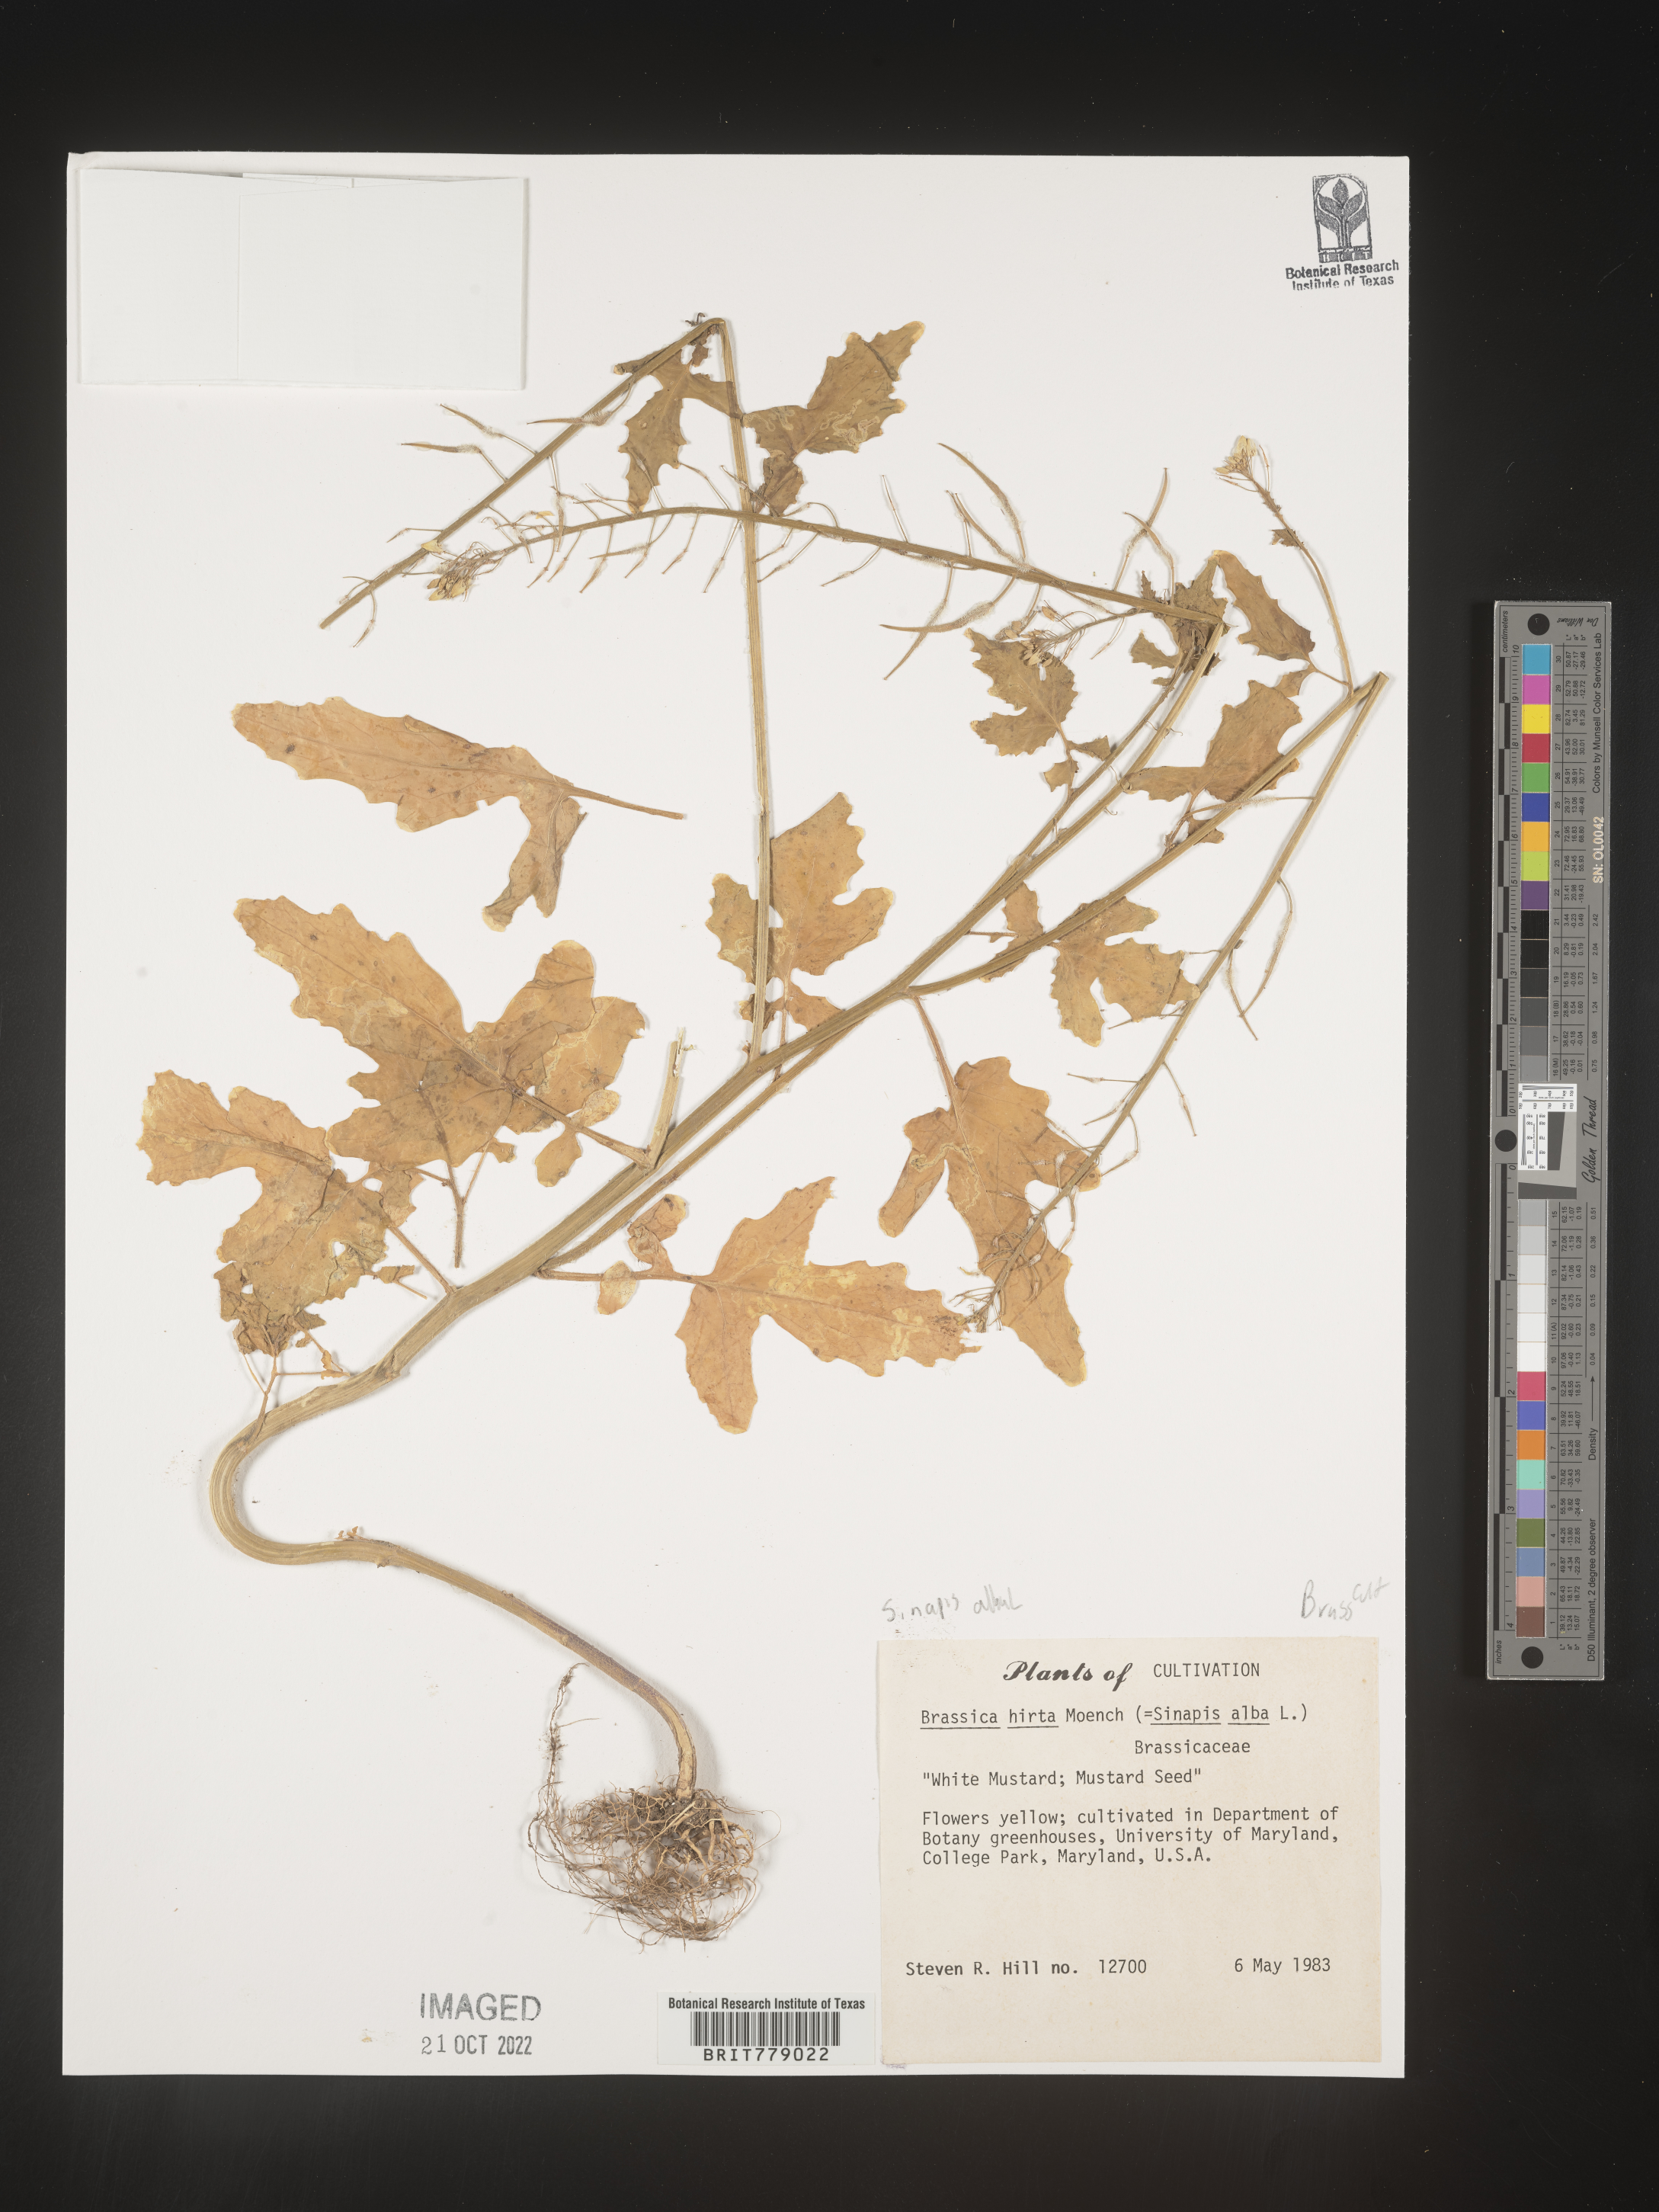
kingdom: Plantae
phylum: Tracheophyta
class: Magnoliopsida
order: Brassicales
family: Brassicaceae
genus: Sinapis
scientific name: Sinapis
